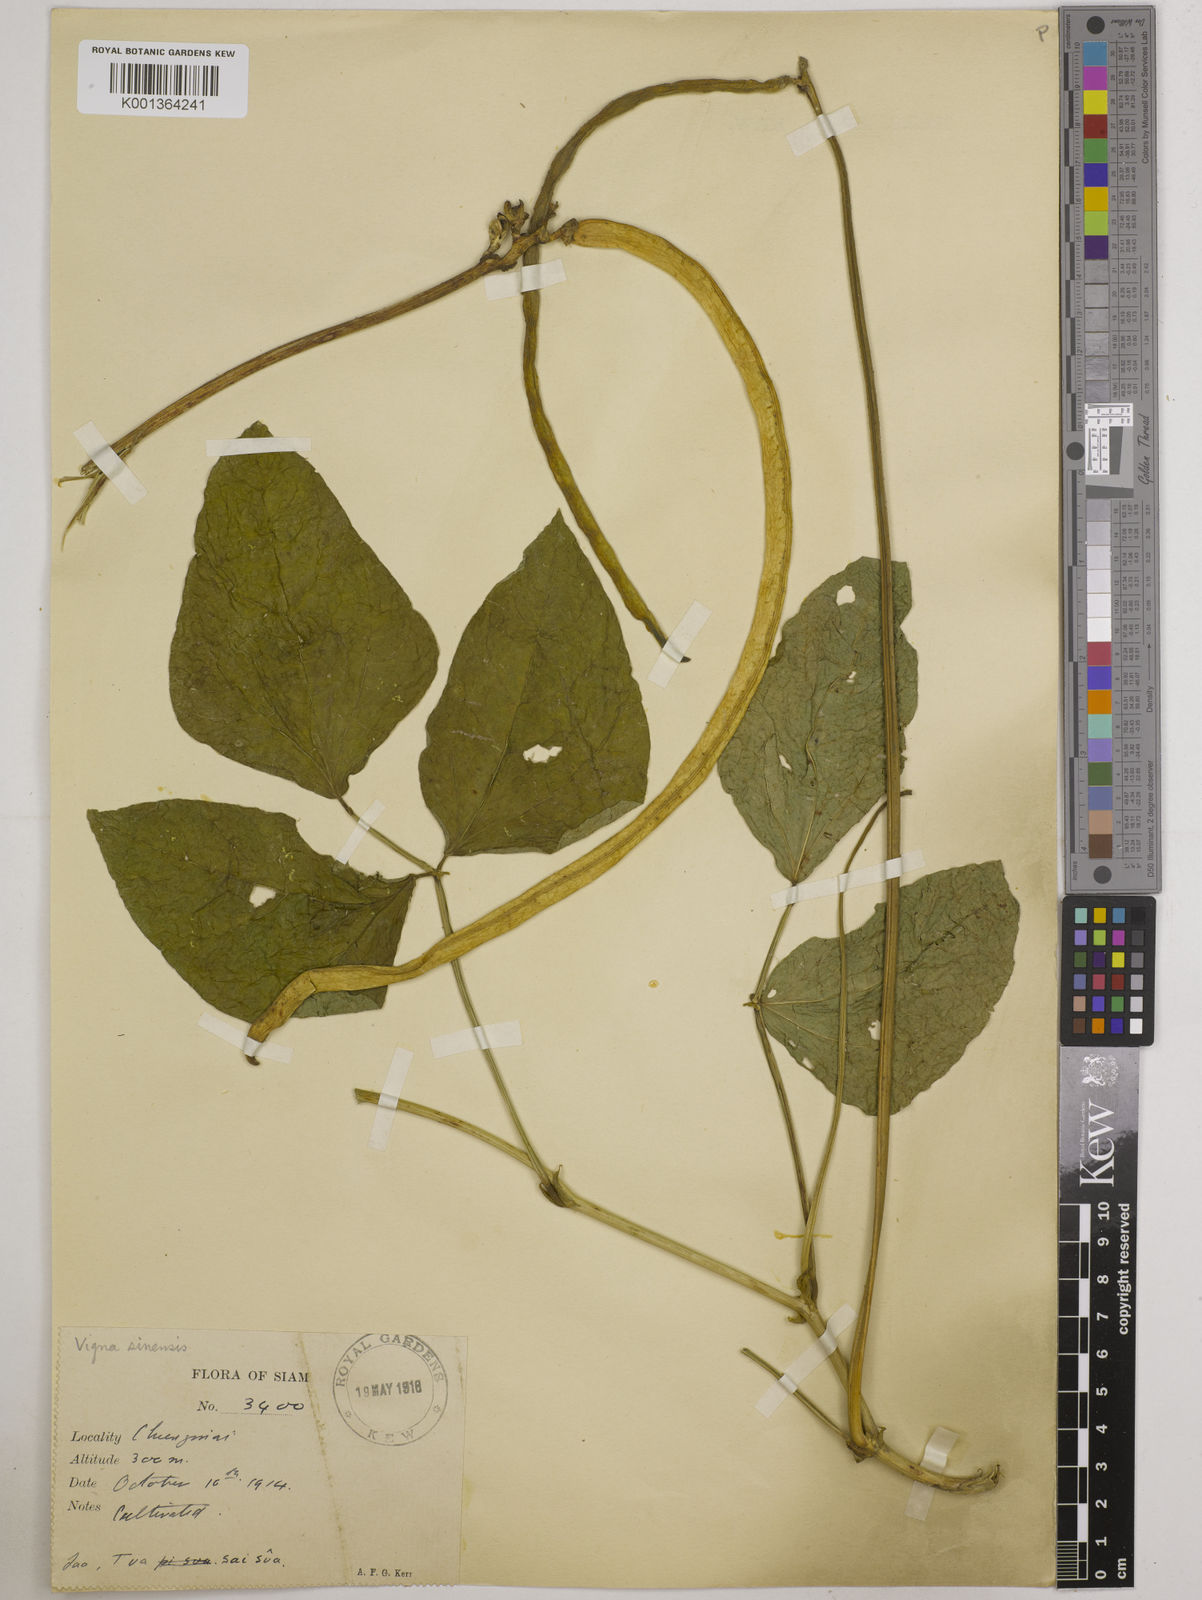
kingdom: Plantae
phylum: Tracheophyta
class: Magnoliopsida
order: Fabales
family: Fabaceae
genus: Vigna
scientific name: Vigna unguiculata
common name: Cowpea
